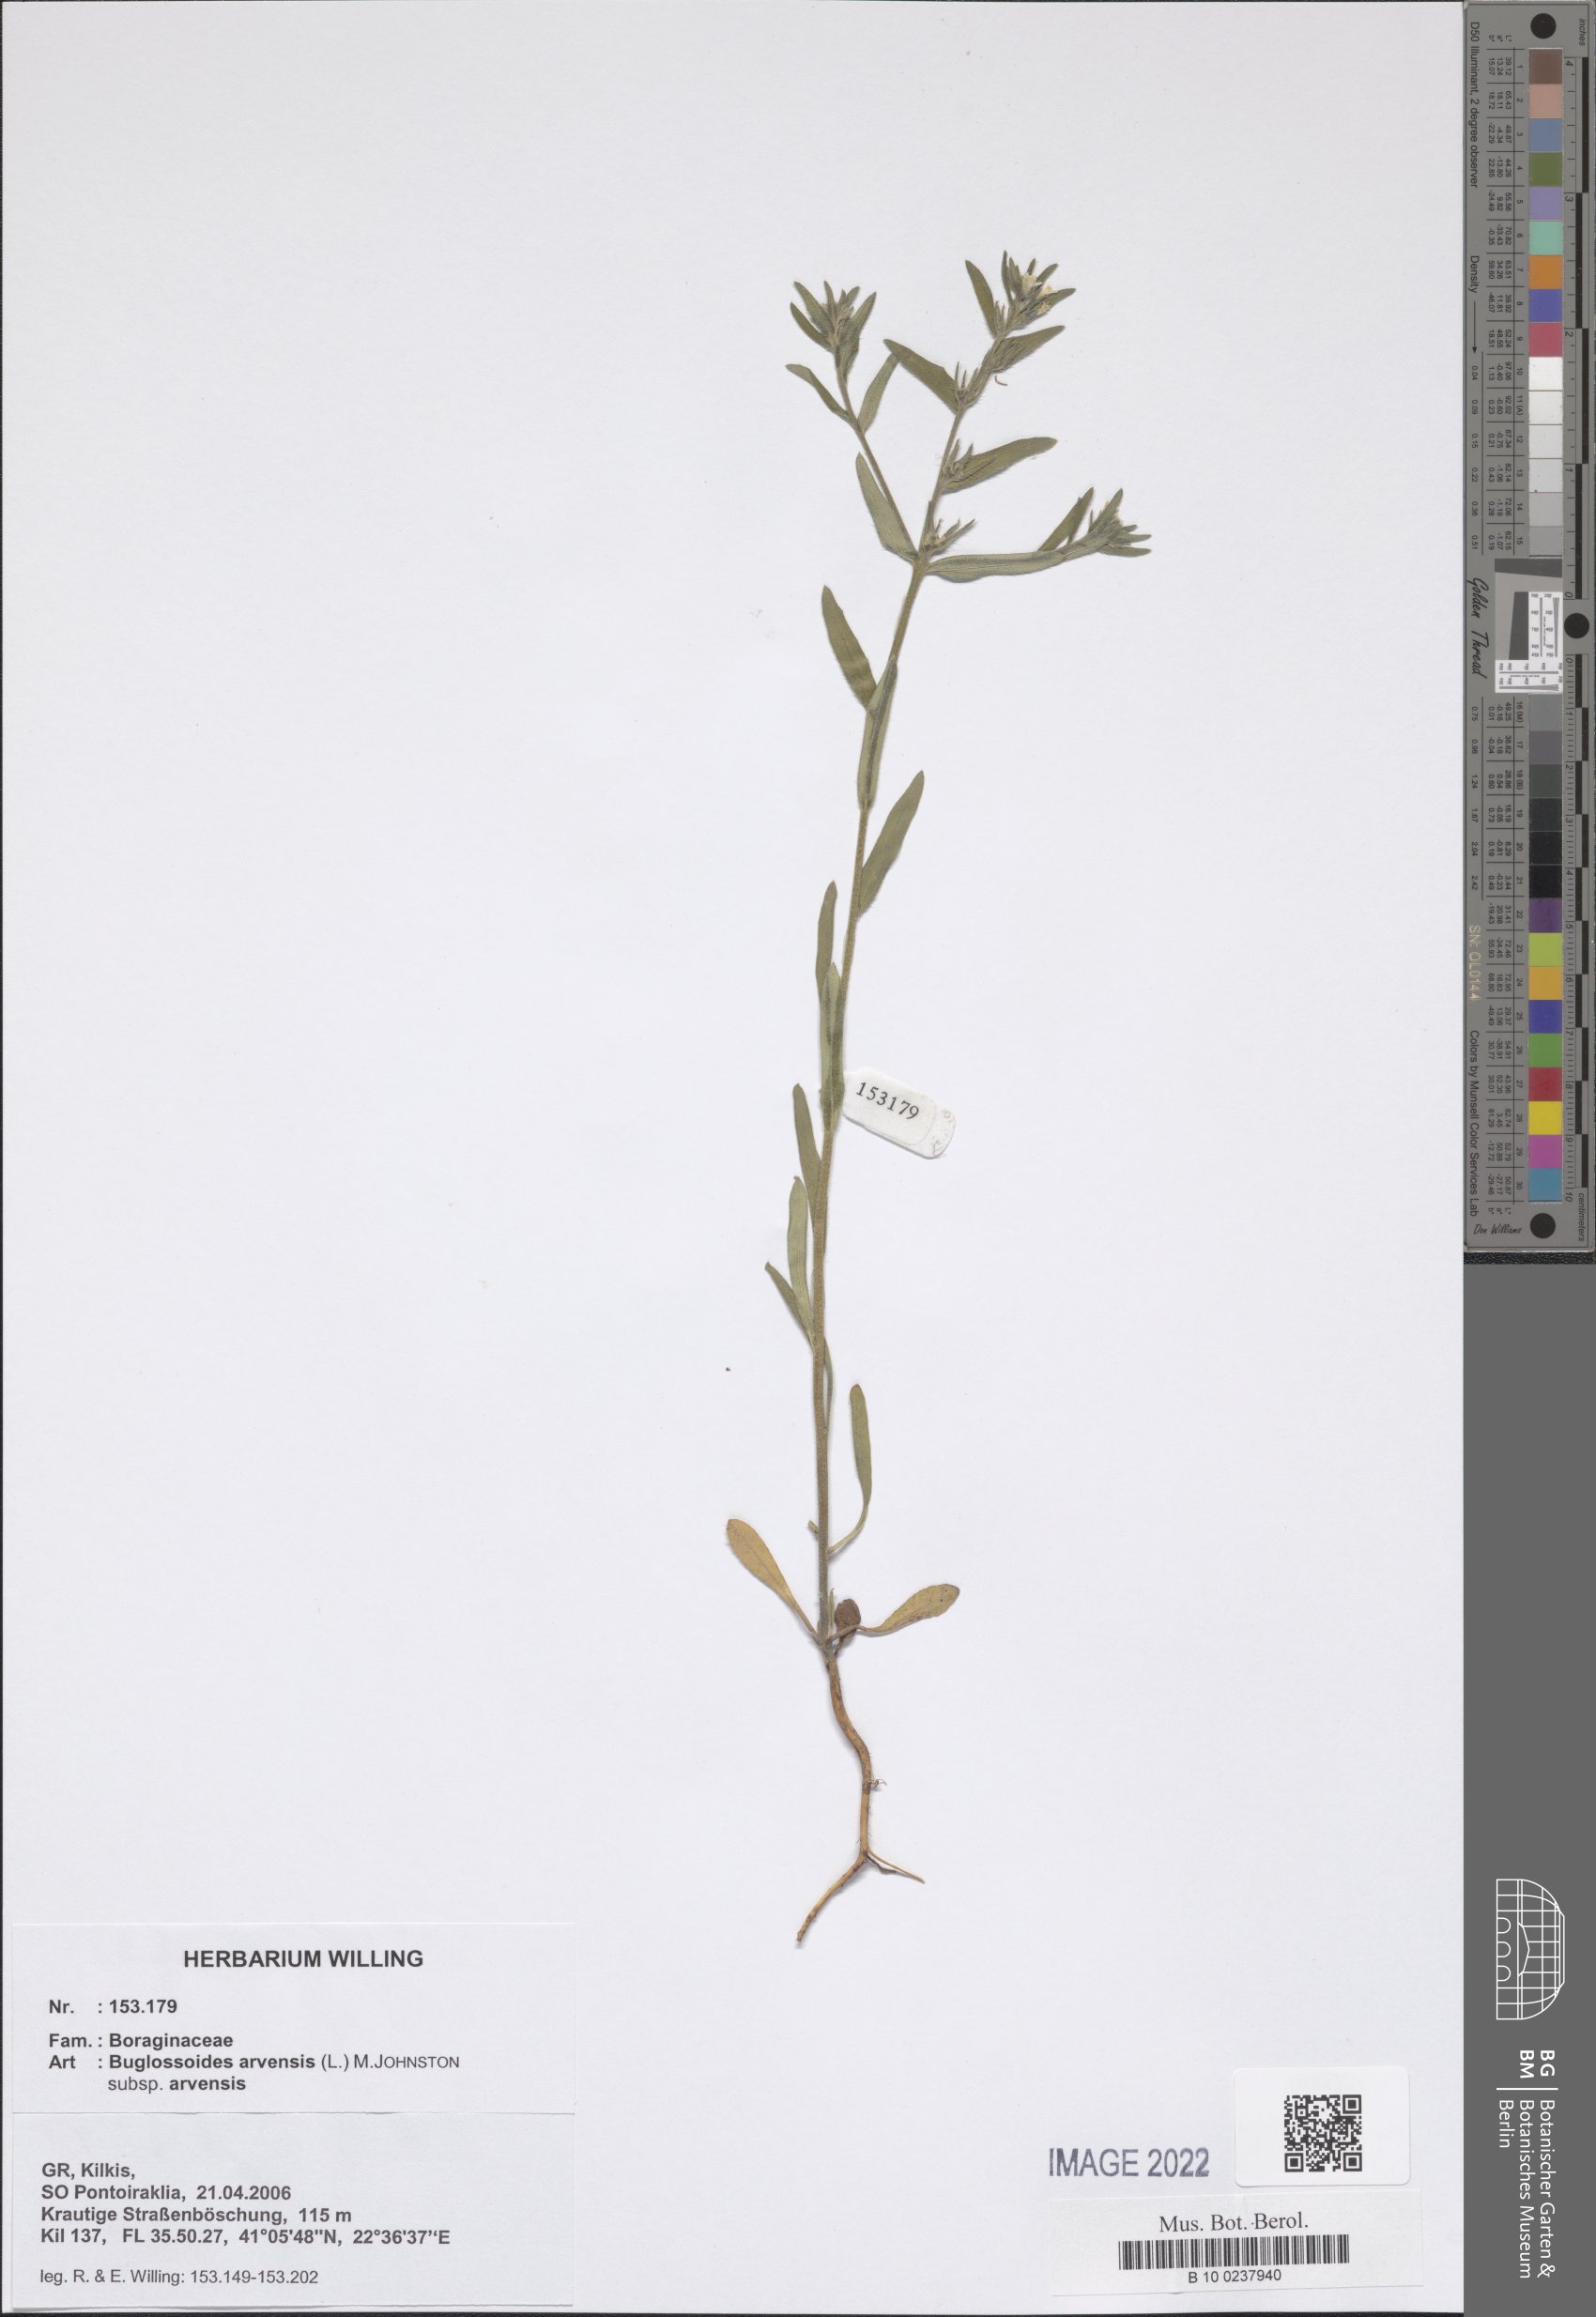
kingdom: Plantae
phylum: Tracheophyta
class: Magnoliopsida
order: Boraginales
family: Boraginaceae
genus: Buglossoides
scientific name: Buglossoides arvensis
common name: Corn gromwell
